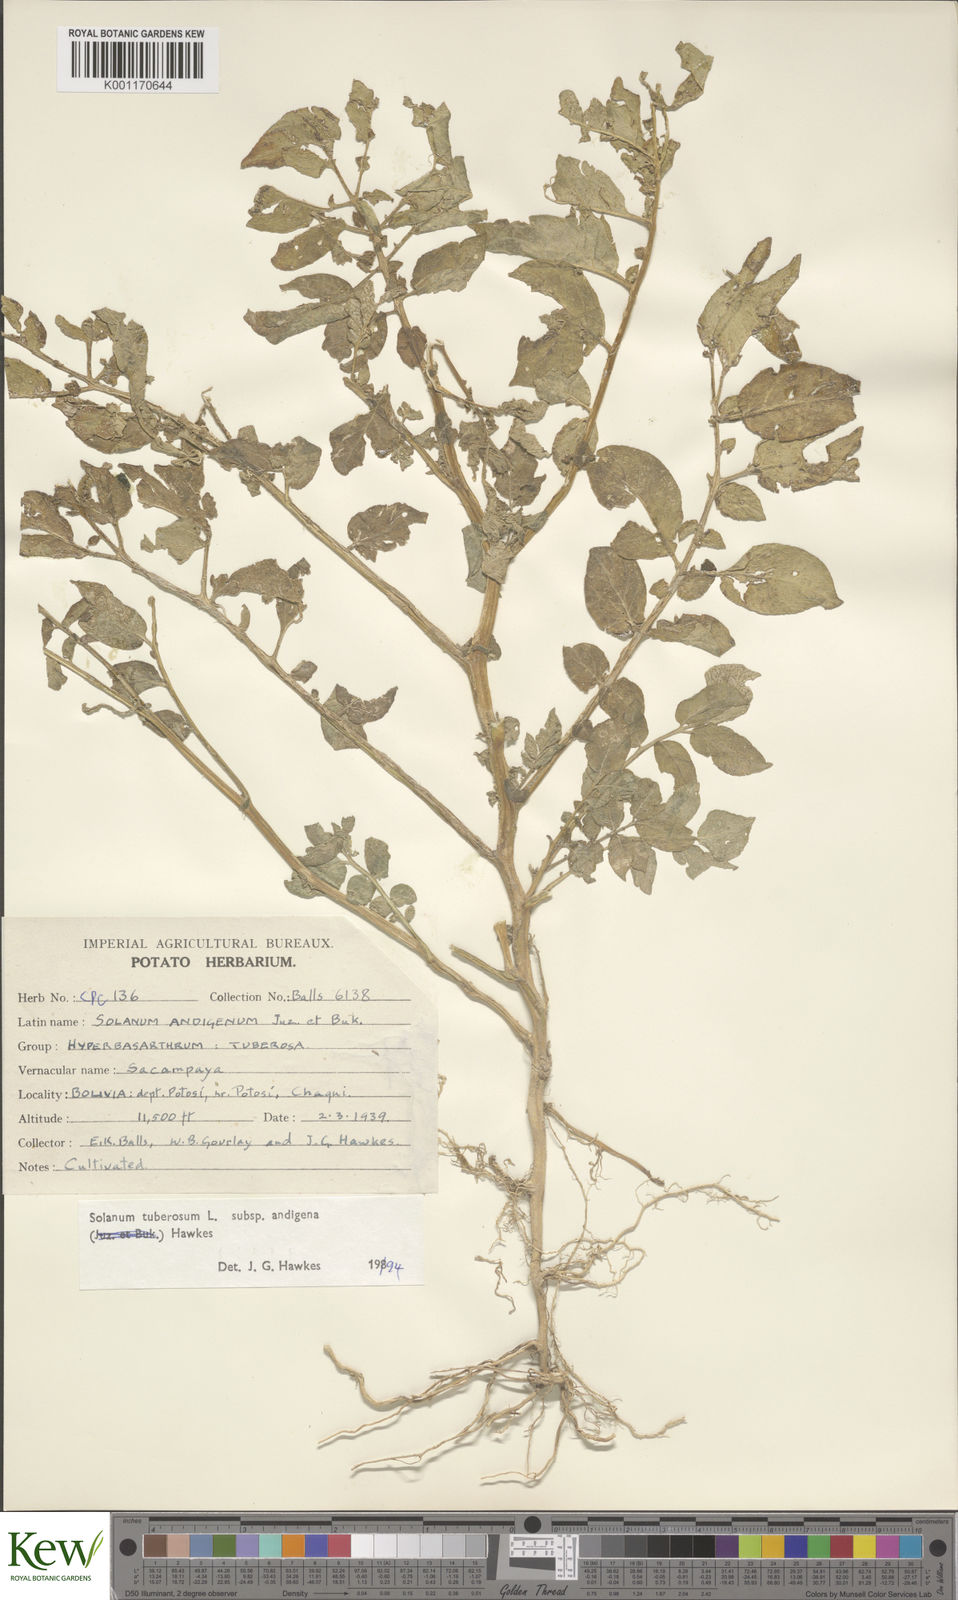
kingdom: Plantae
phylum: Tracheophyta
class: Magnoliopsida
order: Solanales
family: Solanaceae
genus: Solanum
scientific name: Solanum tuberosum
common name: Potato
